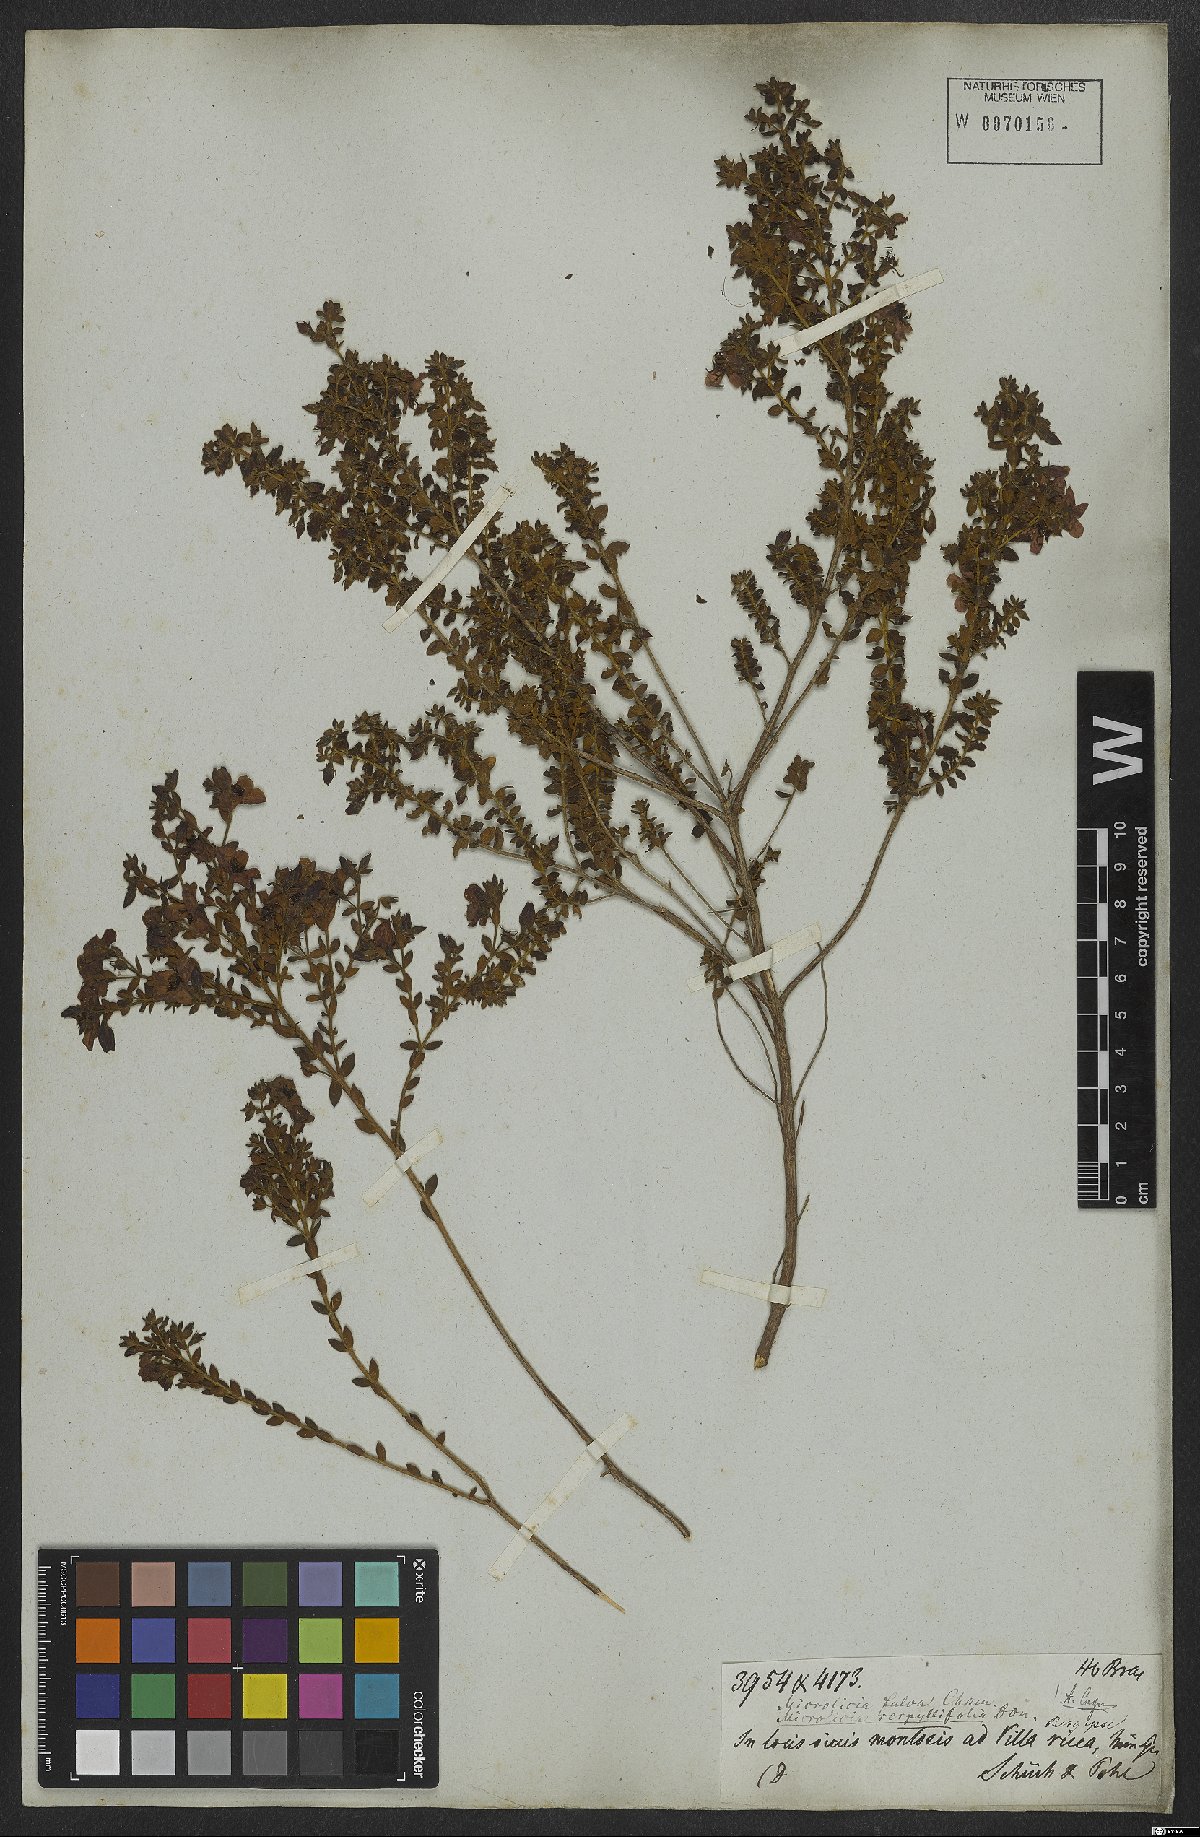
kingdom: Plantae
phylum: Tracheophyta
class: Magnoliopsida
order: Myrtales
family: Melastomataceae
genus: Microlicia
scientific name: Microlicia fulva
